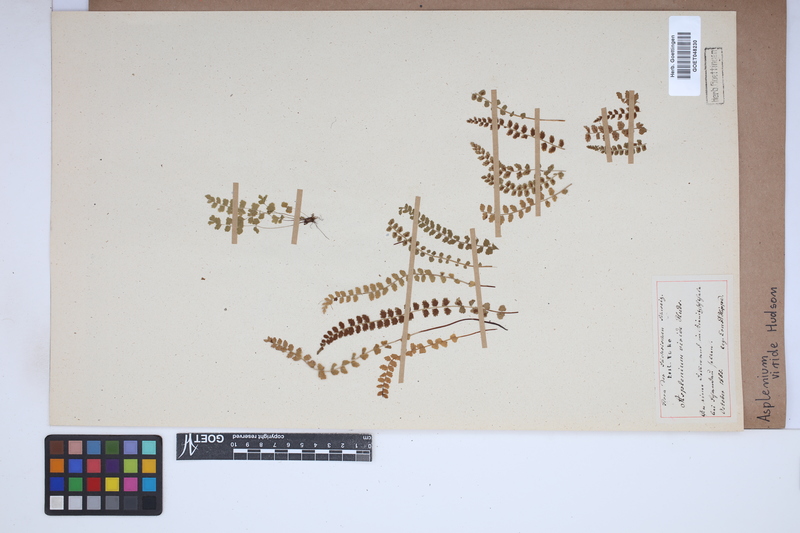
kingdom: Plantae
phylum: Tracheophyta
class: Polypodiopsida
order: Polypodiales
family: Aspleniaceae
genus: Asplenium
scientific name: Asplenium viride
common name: Green spleenwort
